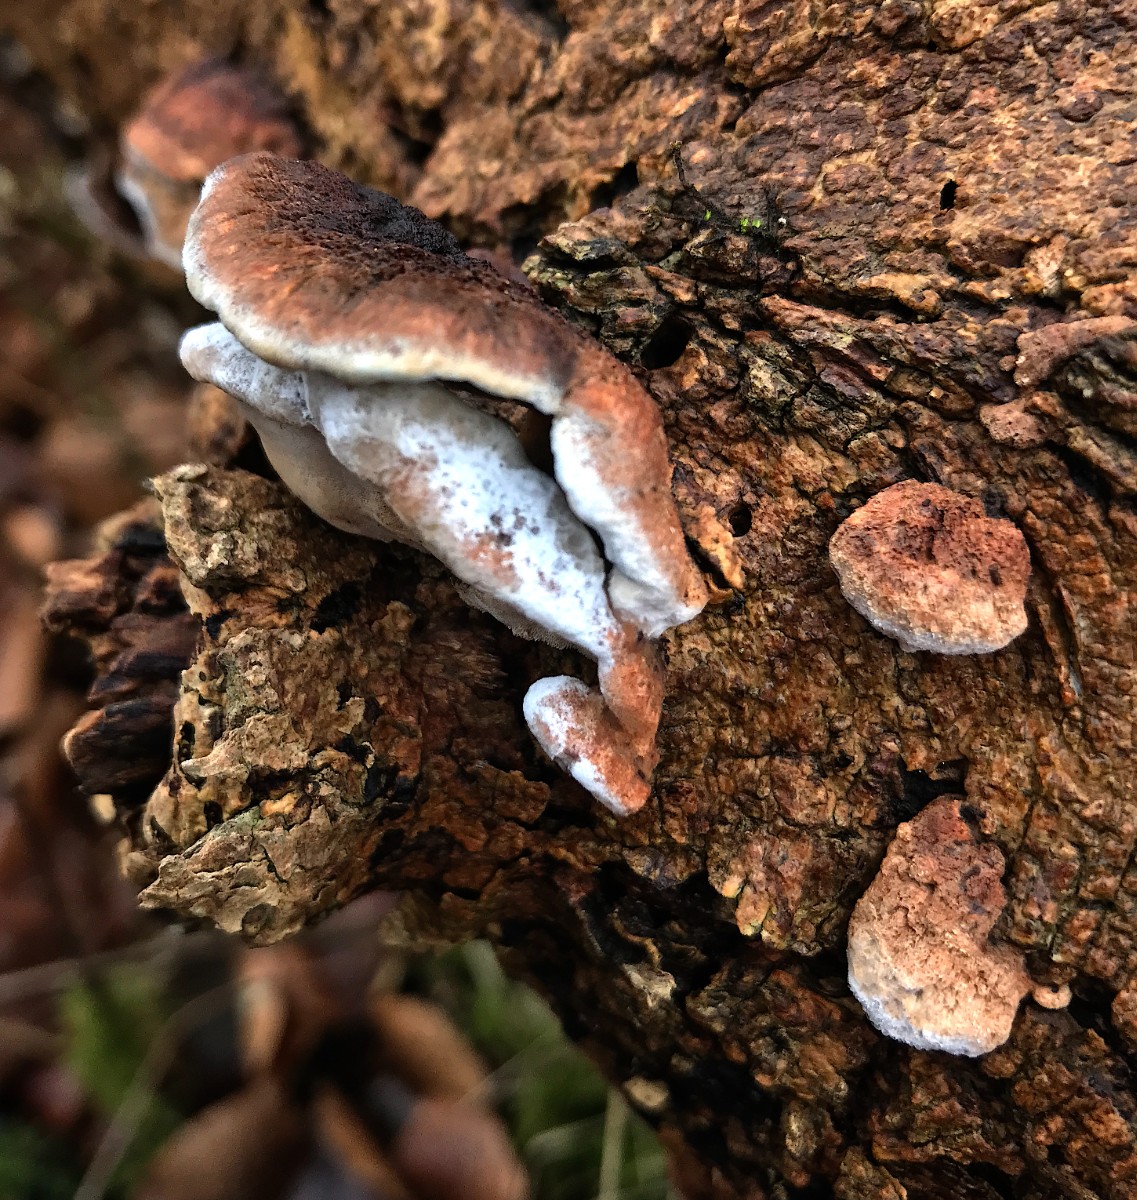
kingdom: Fungi
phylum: Basidiomycota
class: Agaricomycetes
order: Polyporales
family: Incrustoporiaceae
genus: Skeletocutis
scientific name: Skeletocutis nemoralis
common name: stor krystalporesvamp
